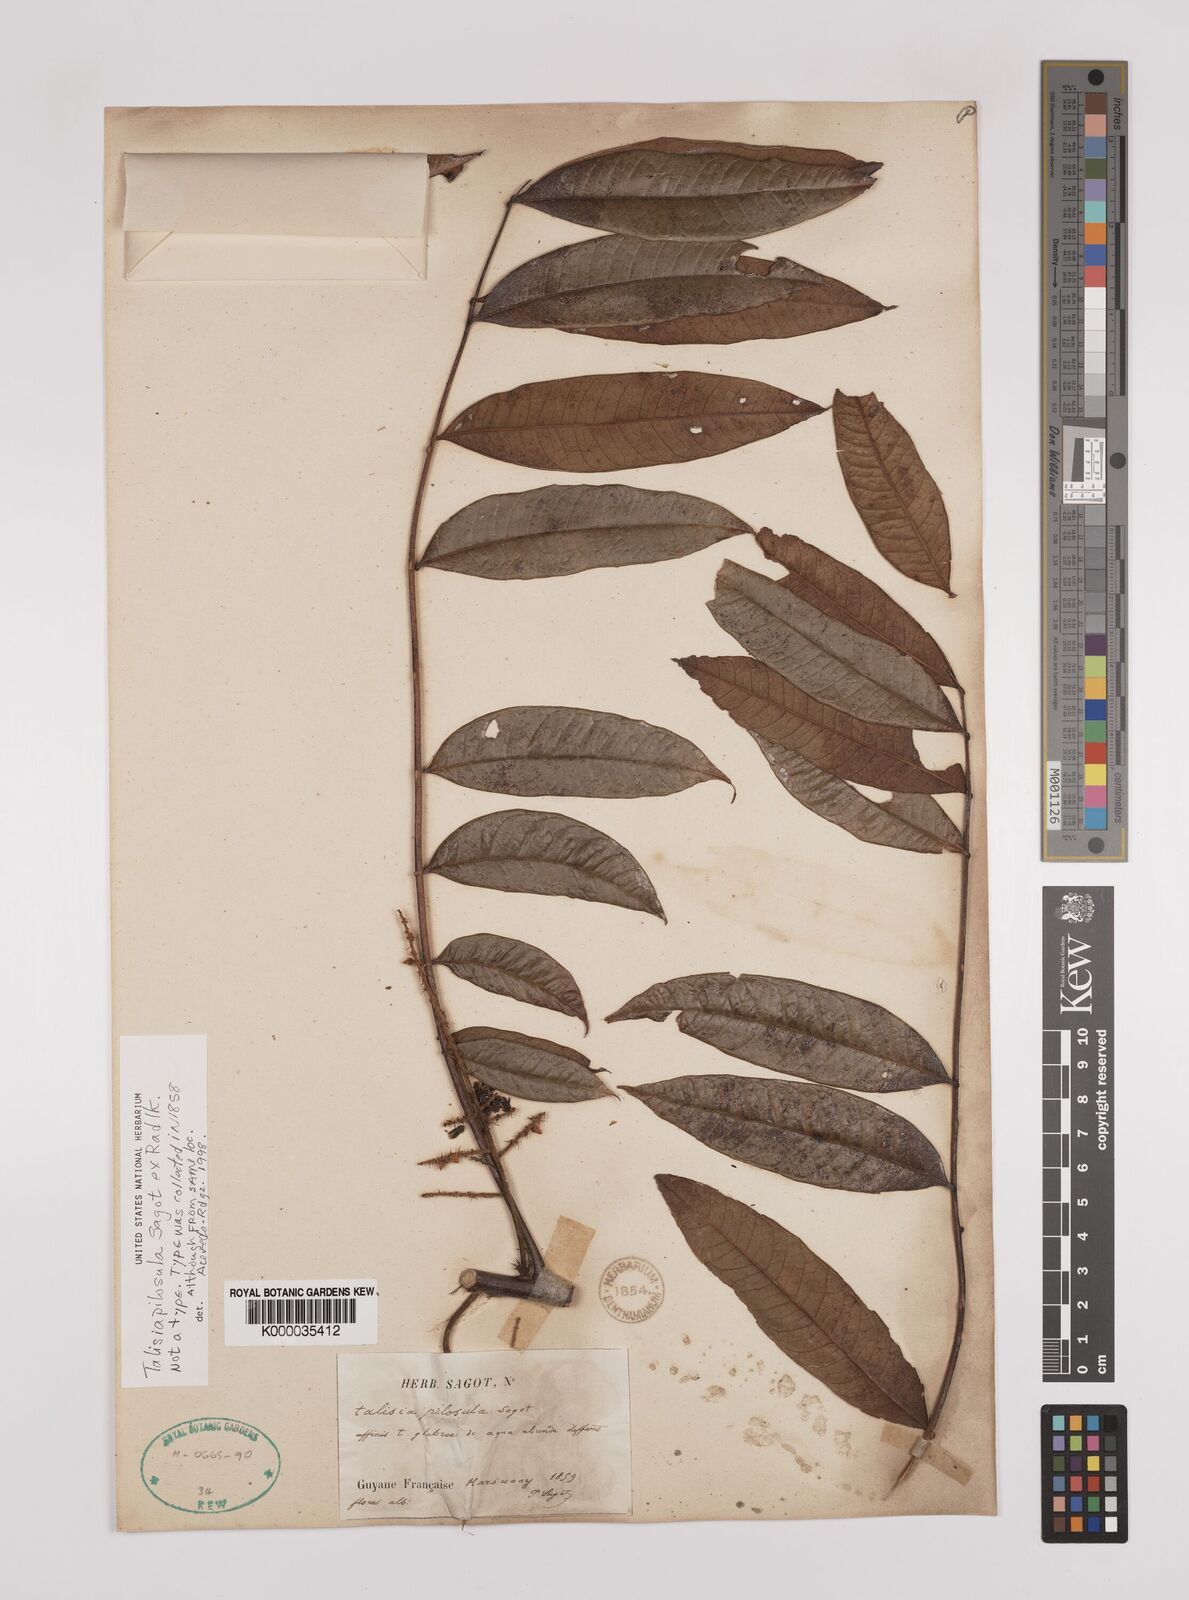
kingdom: Plantae
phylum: Tracheophyta
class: Magnoliopsida
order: Sapindales
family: Sapindaceae
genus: Talisia
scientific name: Talisia
